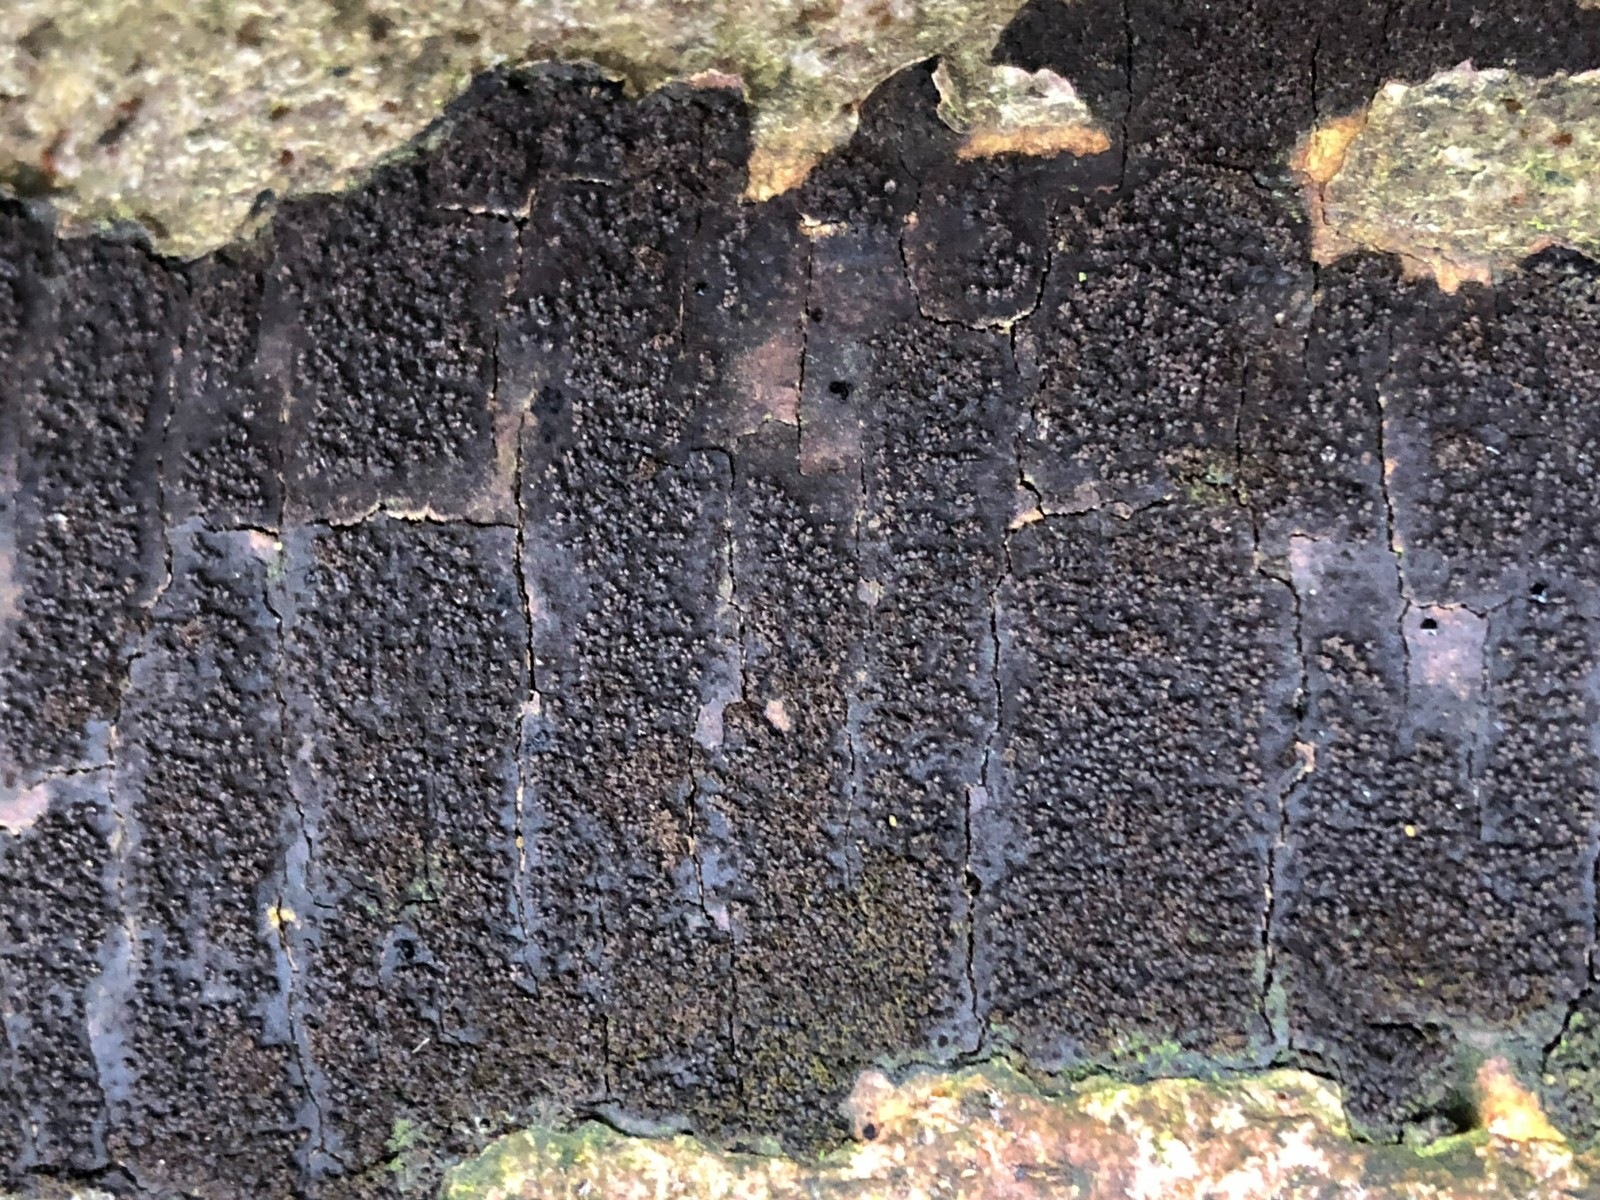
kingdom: Fungi
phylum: Ascomycota
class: Sordariomycetes
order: Xylariales
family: Diatrypaceae
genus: Eutypa
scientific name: Eutypa spinosa
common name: grov kulskorpe
